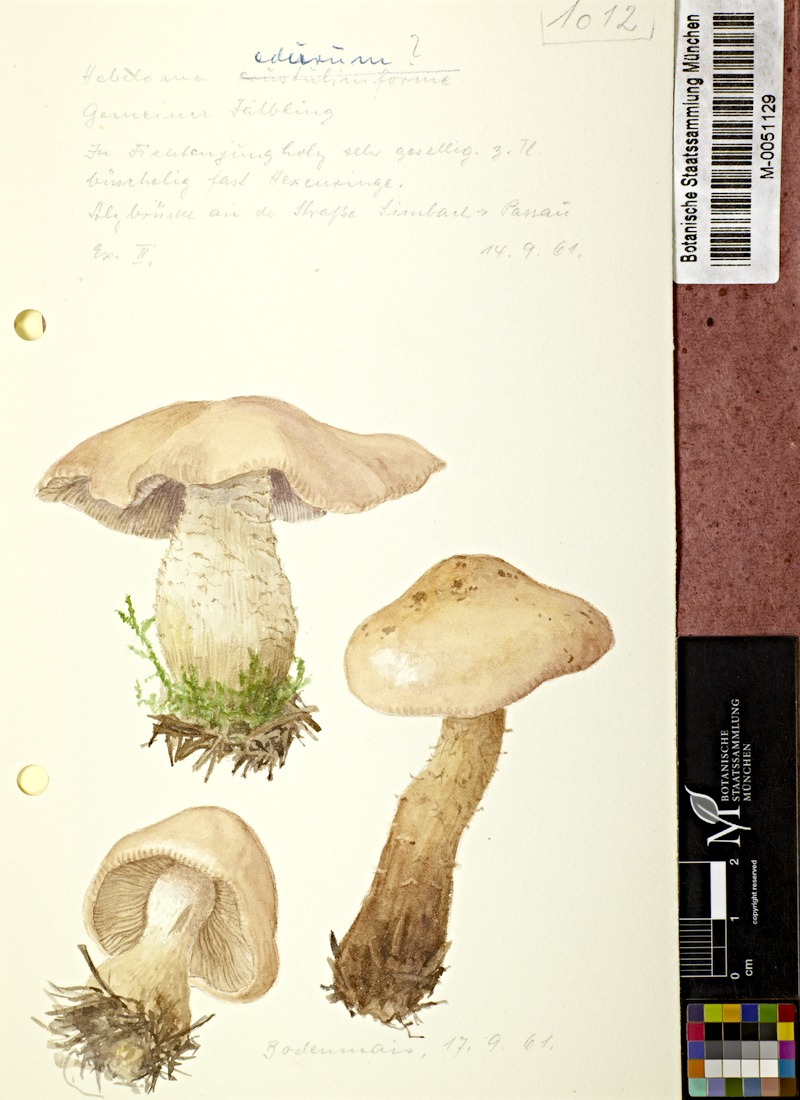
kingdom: Fungi
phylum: Basidiomycota
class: Agaricomycetes
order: Agaricales
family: Hymenogastraceae
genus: Hebeloma
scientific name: Hebeloma laterinum
